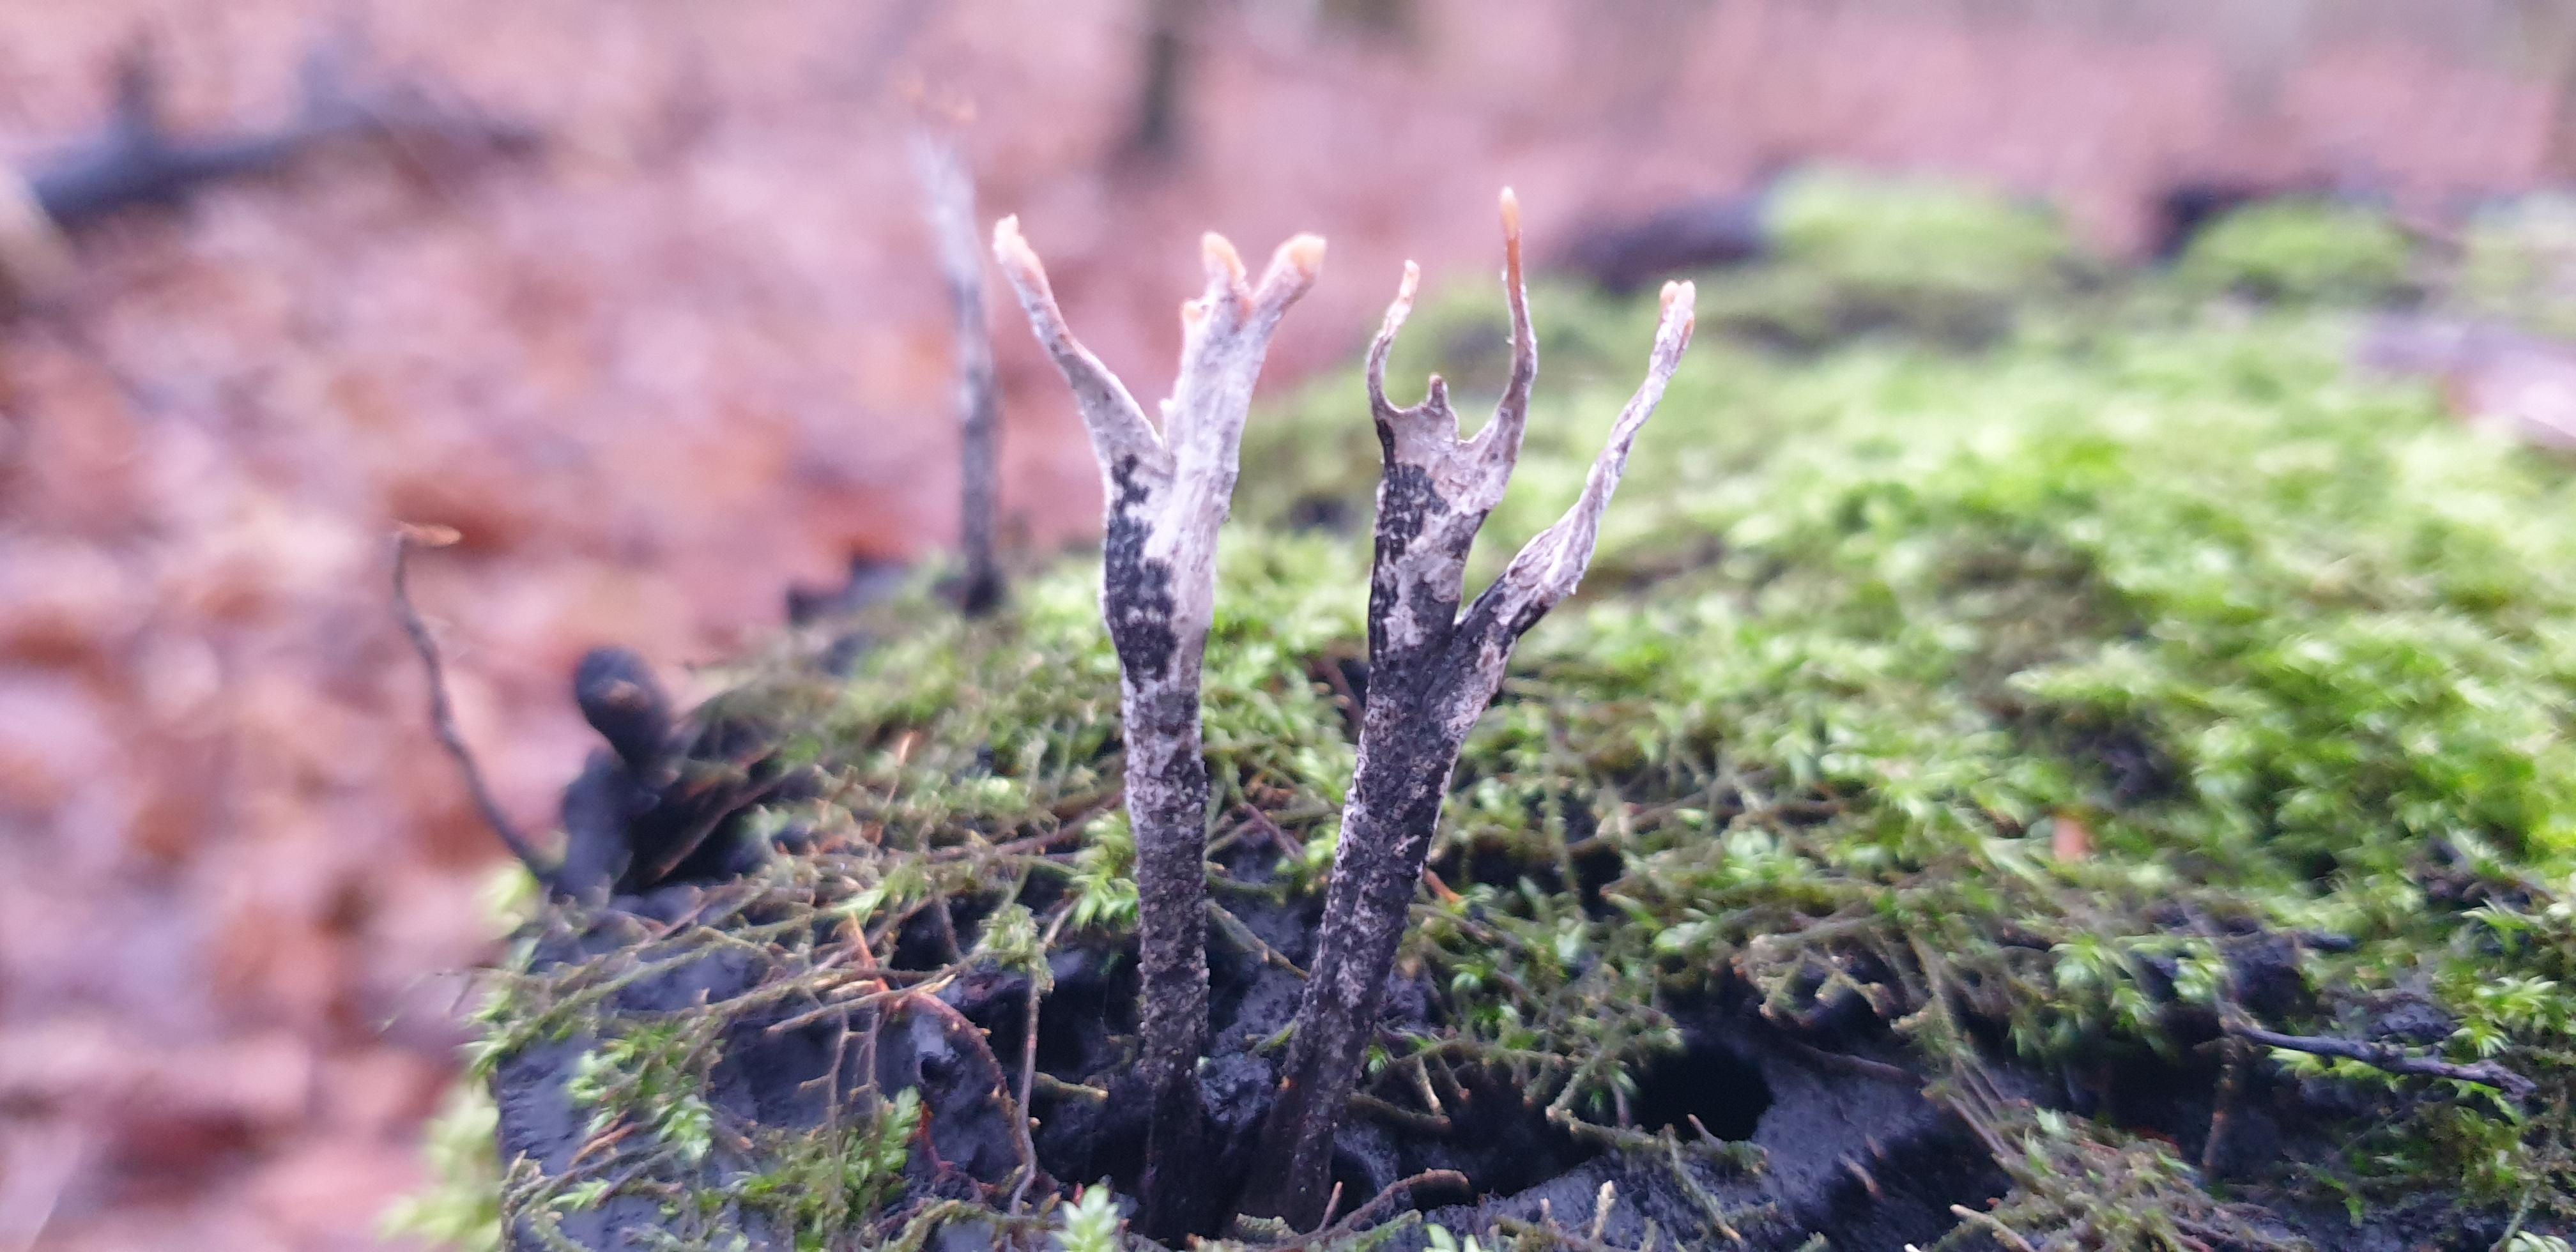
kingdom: Fungi
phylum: Ascomycota
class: Sordariomycetes
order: Xylariales
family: Xylariaceae
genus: Xylaria
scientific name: Xylaria hypoxylon
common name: grenet stødsvamp
